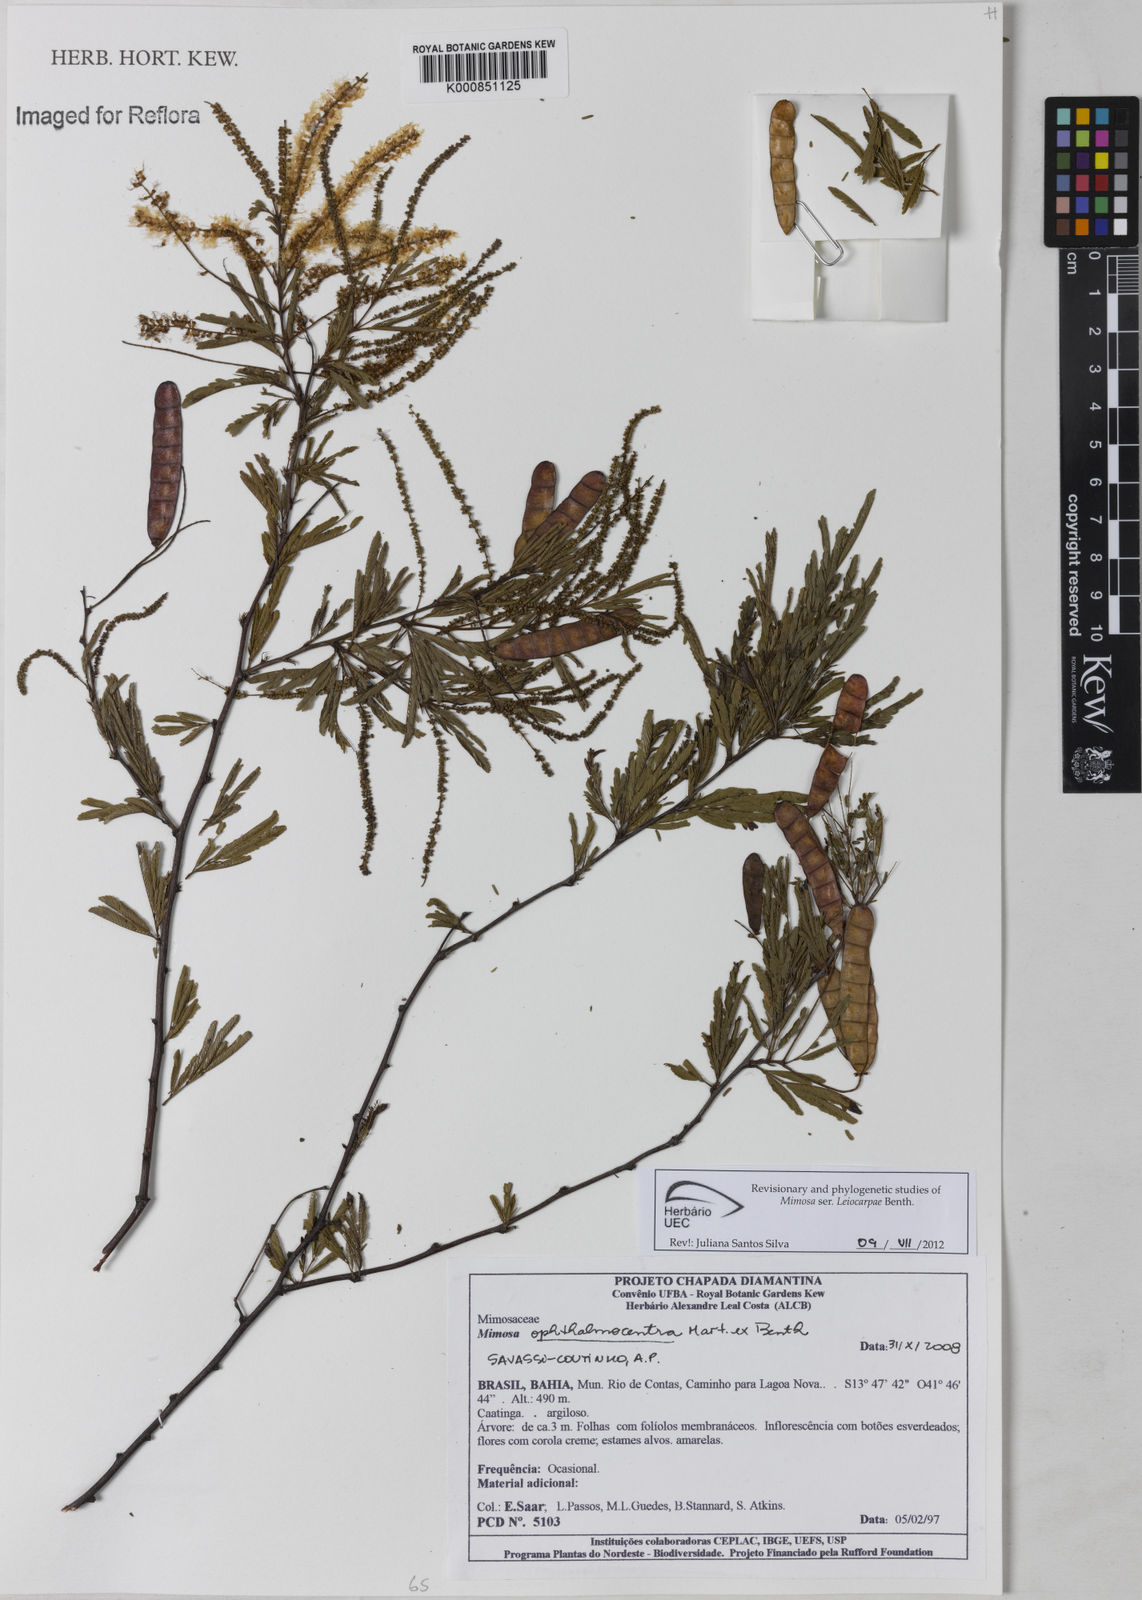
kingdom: Plantae
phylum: Tracheophyta
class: Magnoliopsida
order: Fabales
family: Fabaceae
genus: Mimosa
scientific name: Mimosa ophthalmocentra
